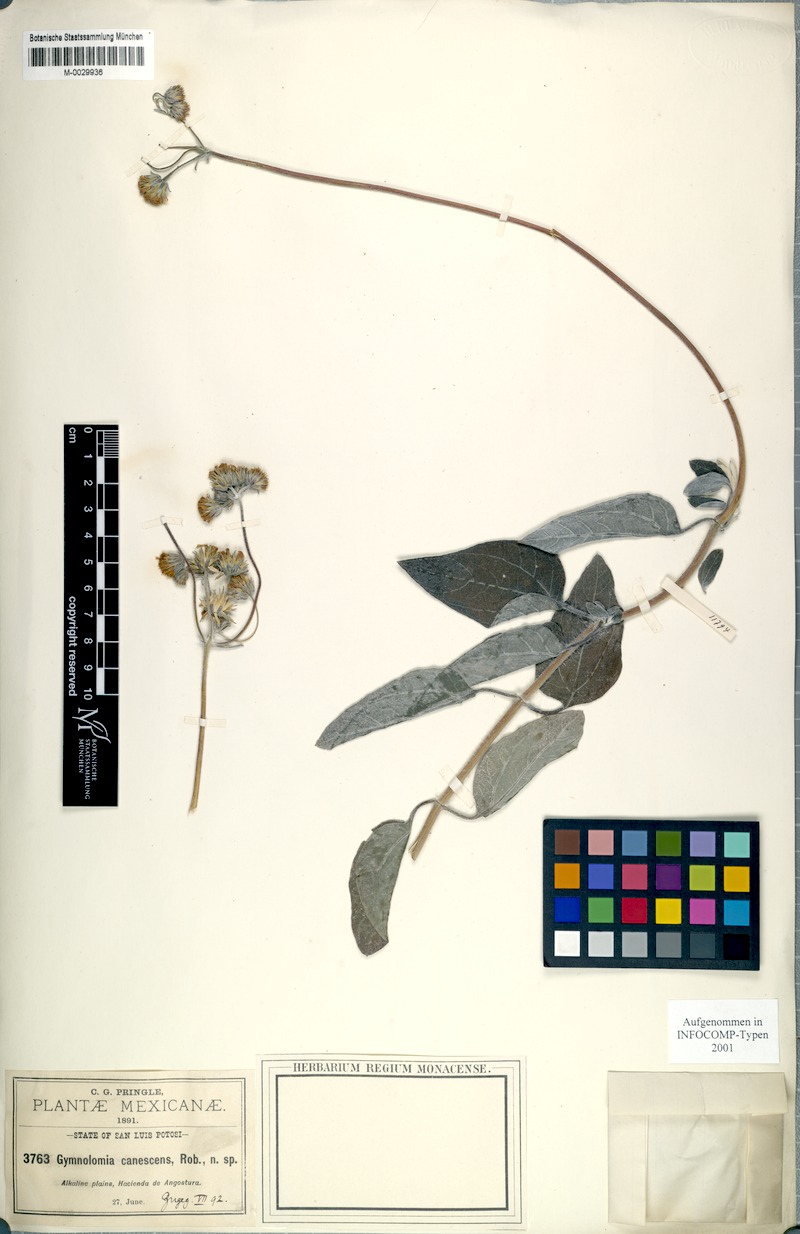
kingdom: Plantae
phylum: Tracheophyta
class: Magnoliopsida
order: Asterales
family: Asteraceae
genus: Aldama
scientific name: Aldama canescens
